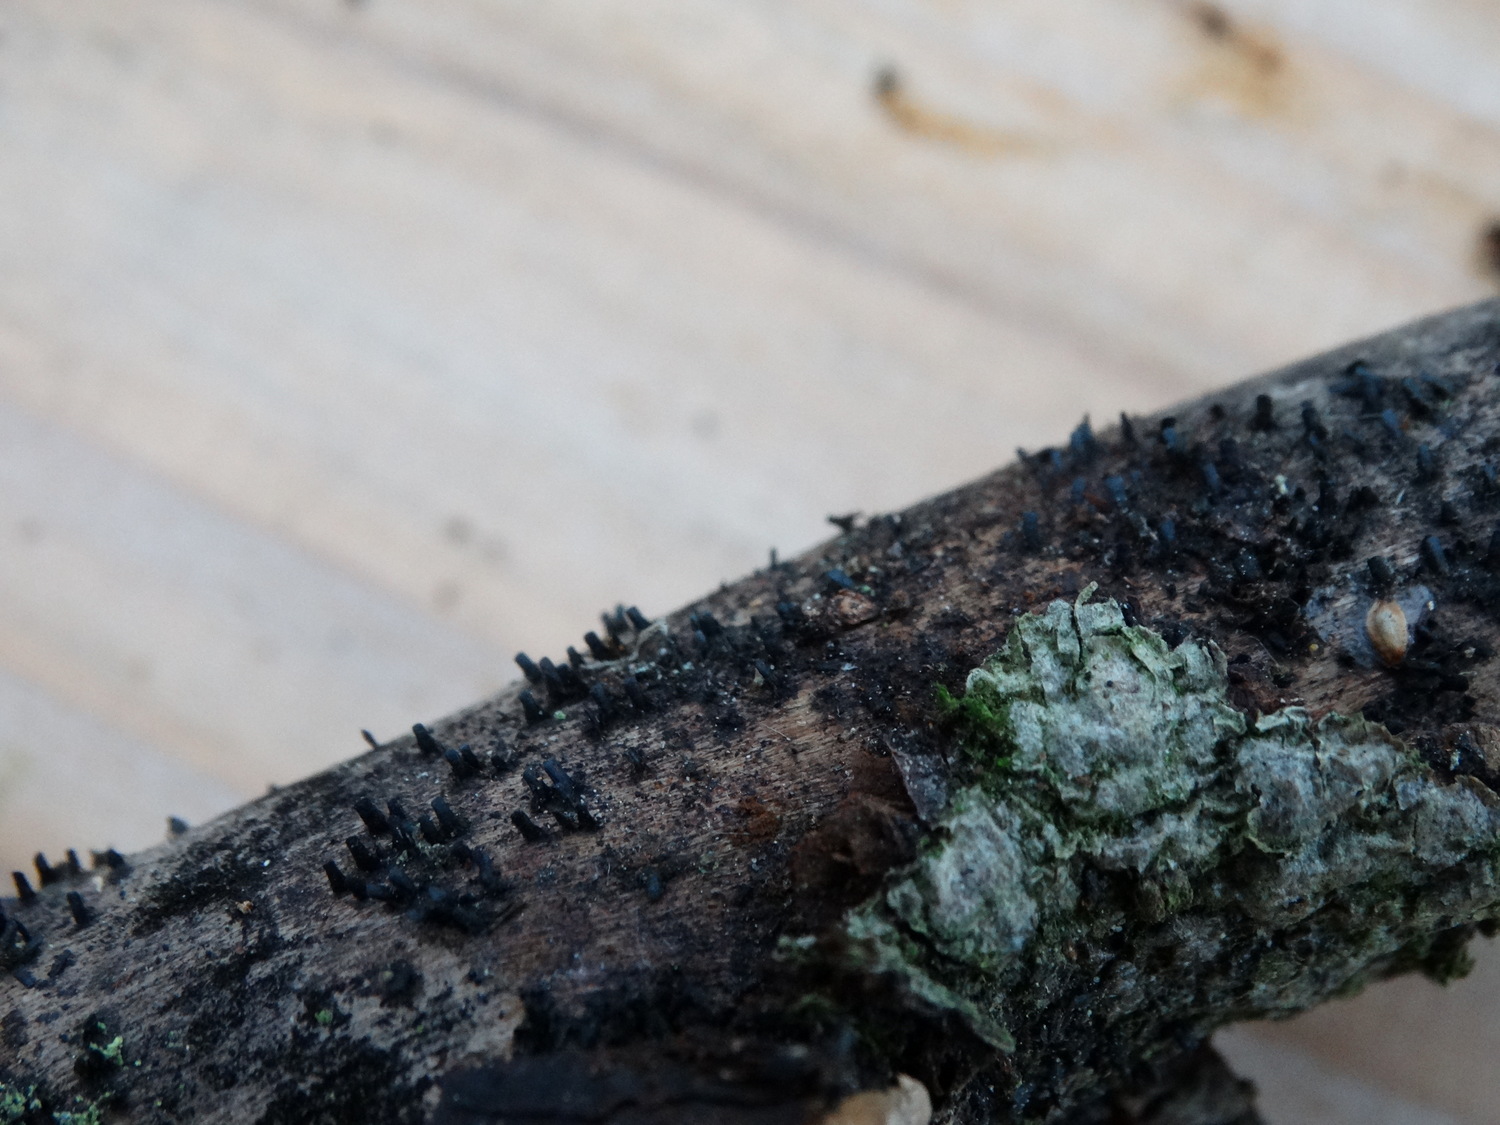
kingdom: Fungi
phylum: Ascomycota
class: Eurotiomycetes
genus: Glyphium
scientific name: Glyphium elatum
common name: kuløkse
